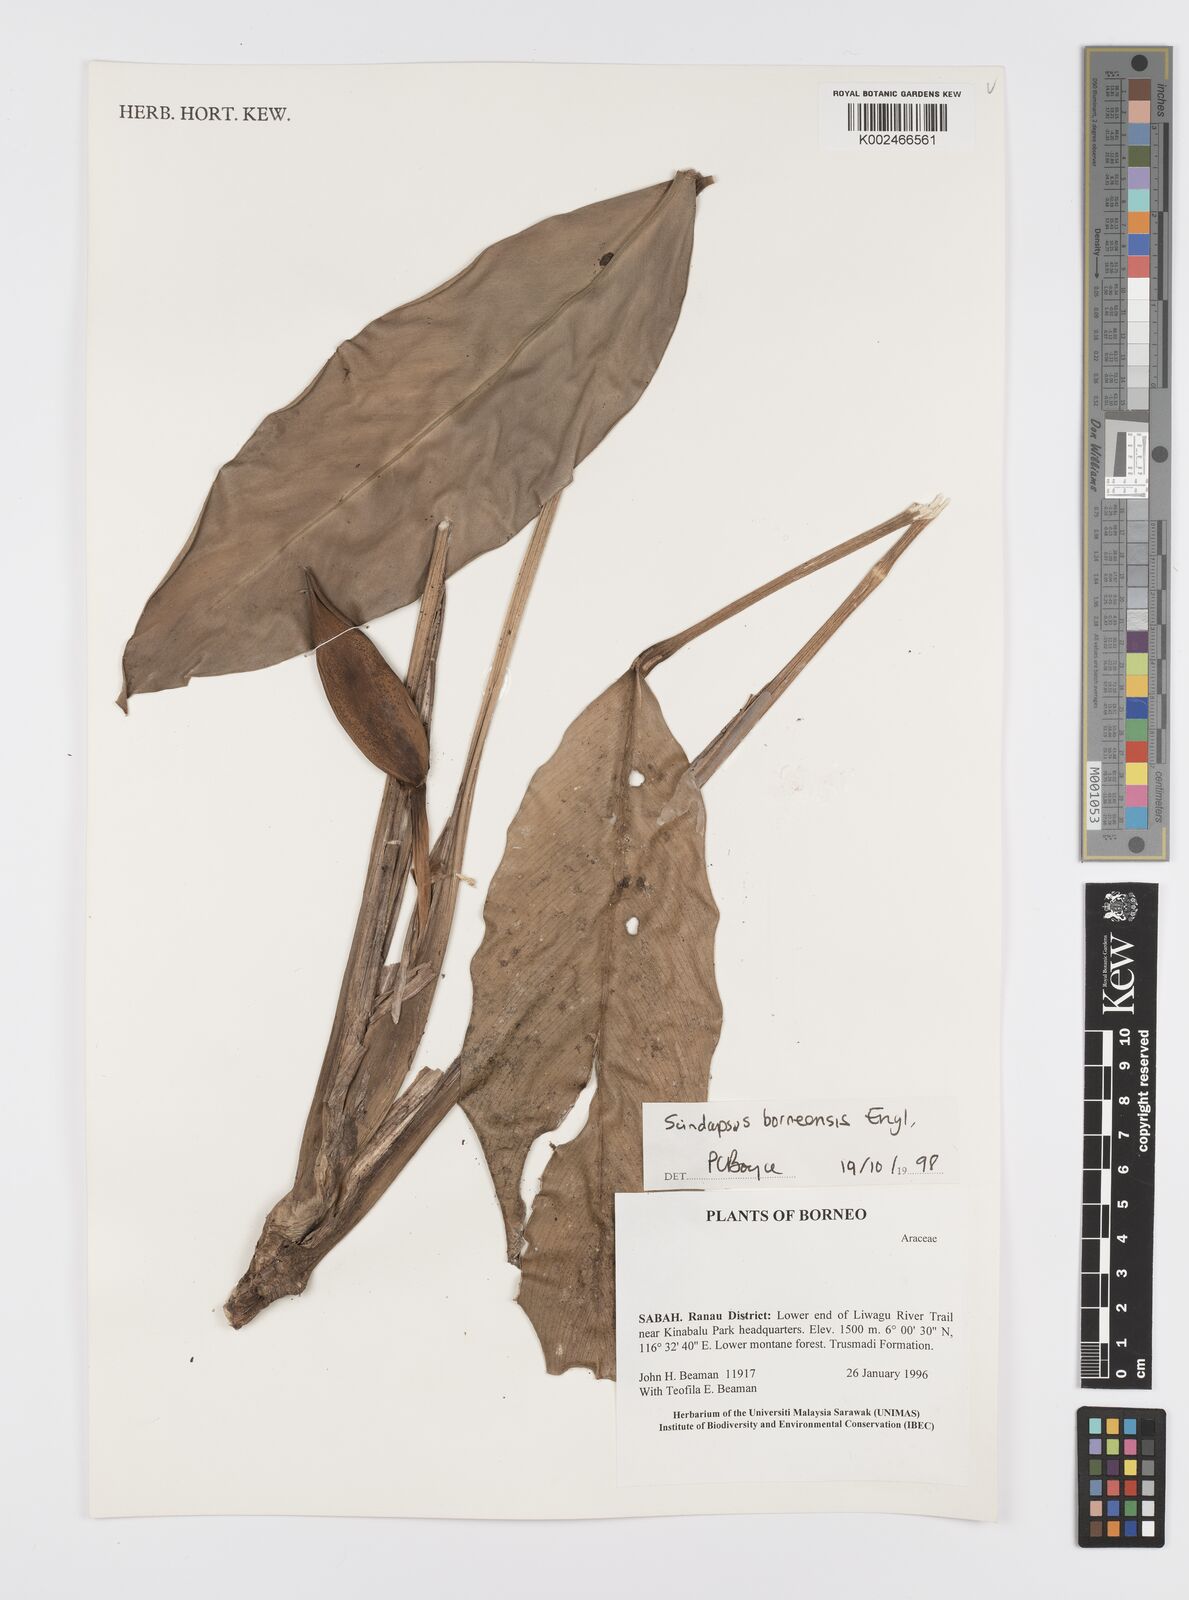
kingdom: Plantae
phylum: Tracheophyta
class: Liliopsida
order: Alismatales
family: Araceae
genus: Scindapsus
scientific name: Scindapsus coriaceus
